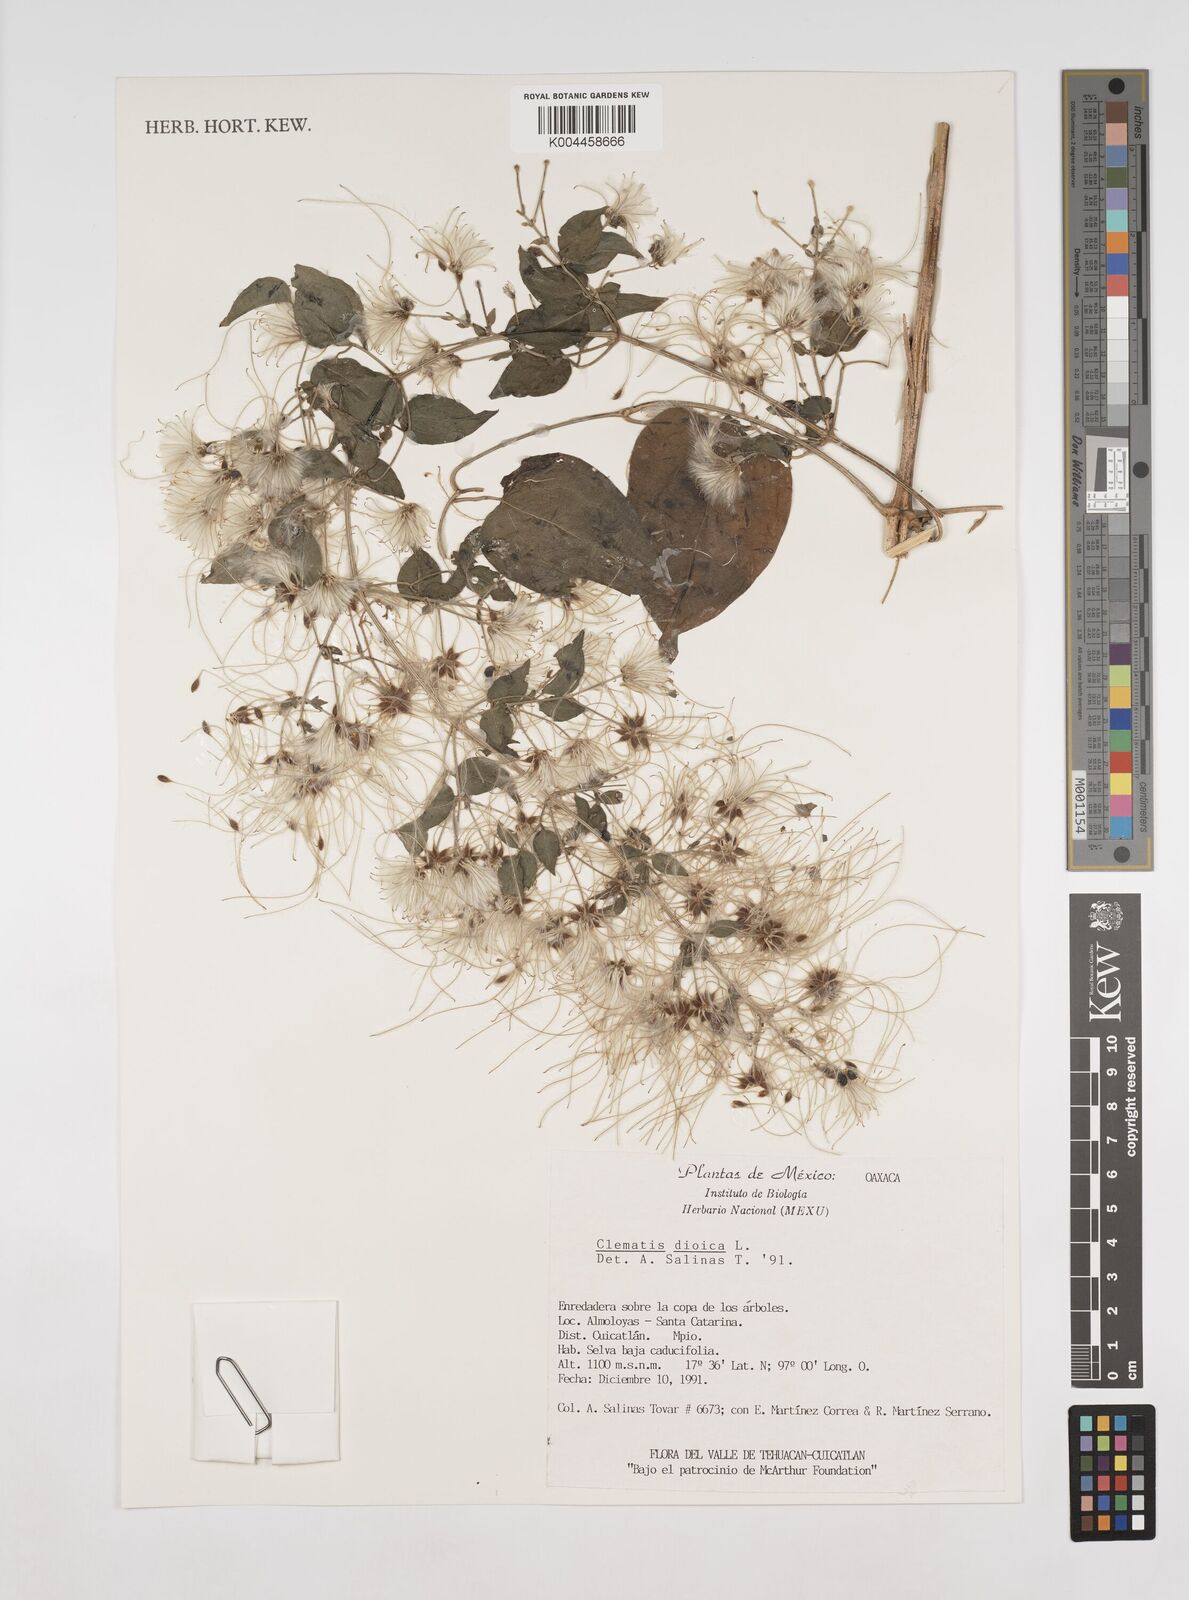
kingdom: Plantae
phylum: Tracheophyta
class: Magnoliopsida
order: Ranunculales
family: Ranunculaceae
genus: Clematis
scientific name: Clematis dioica
